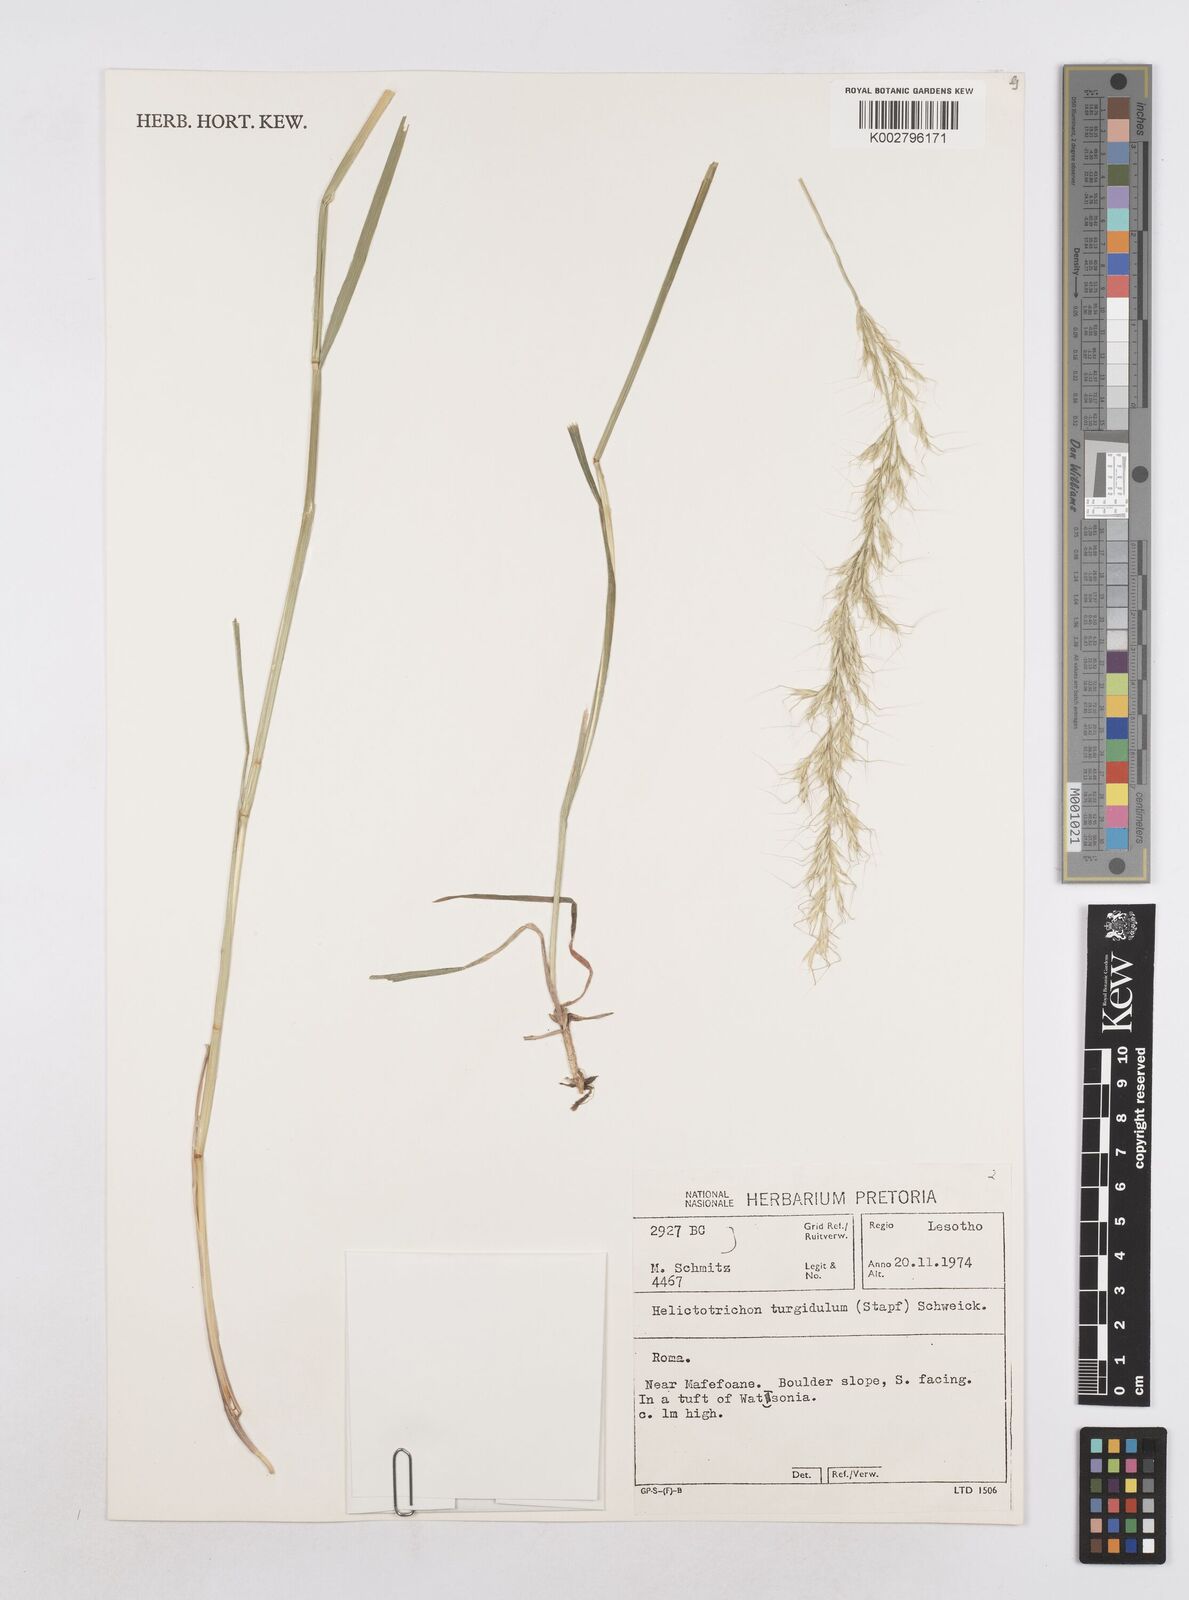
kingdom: Plantae
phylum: Tracheophyta
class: Liliopsida
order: Poales
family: Poaceae
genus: Trisetopsis
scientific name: Trisetopsis imberbis
